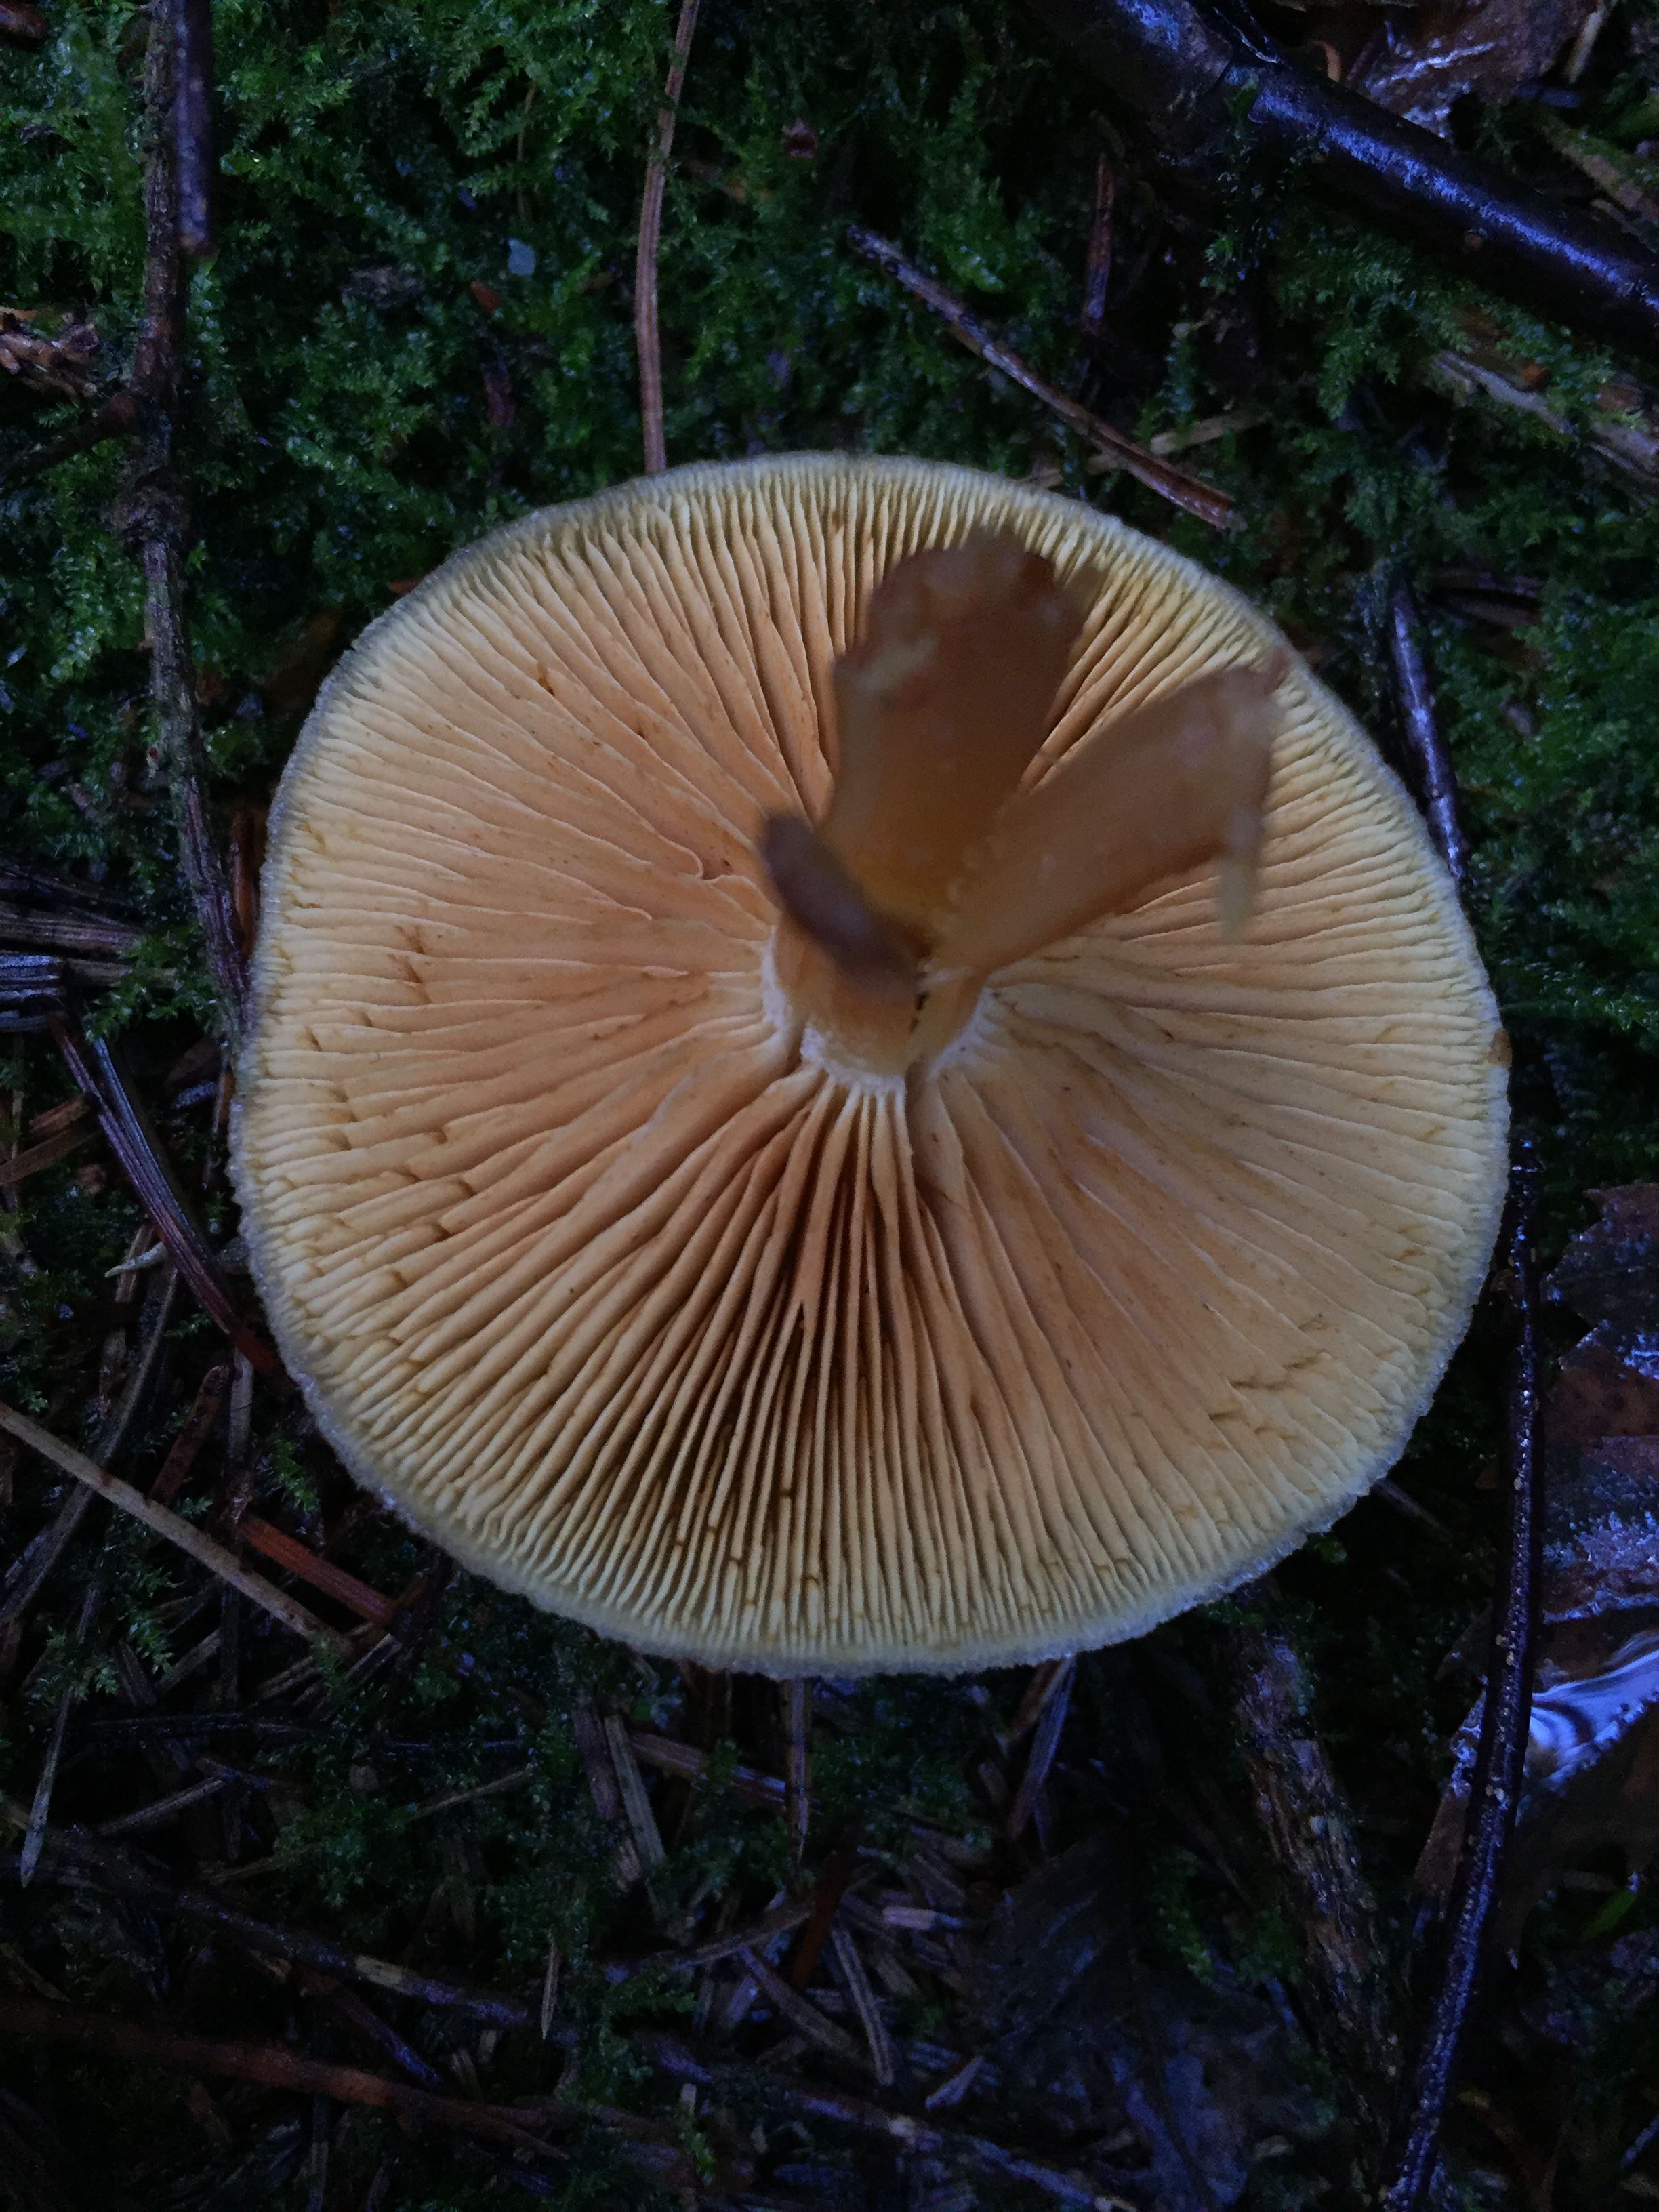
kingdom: Fungi
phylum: Basidiomycota
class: Agaricomycetes
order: Agaricales
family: Hymenogastraceae
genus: Gymnopilus
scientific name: Gymnopilus penetrans
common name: plettet flammehat
